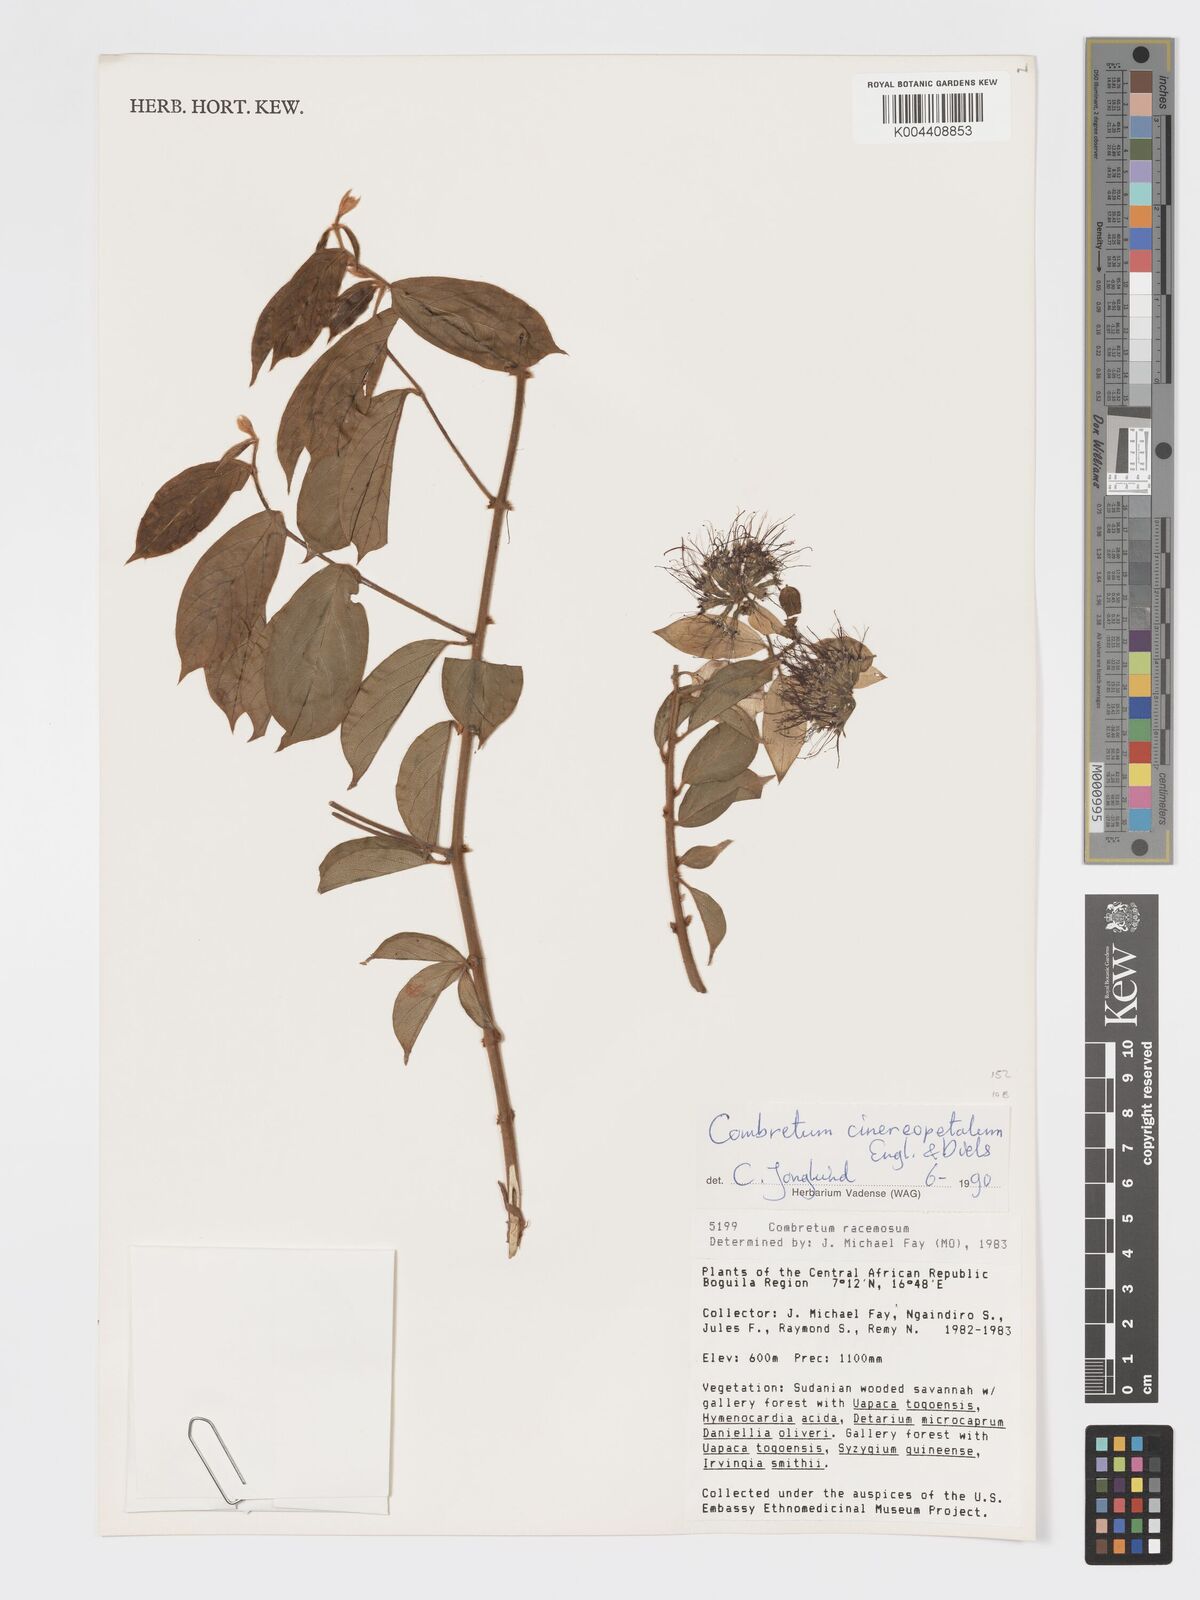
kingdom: Plantae
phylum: Tracheophyta
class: Magnoliopsida
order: Myrtales
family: Combretaceae
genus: Combretum
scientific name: Combretum cinereopetalum
